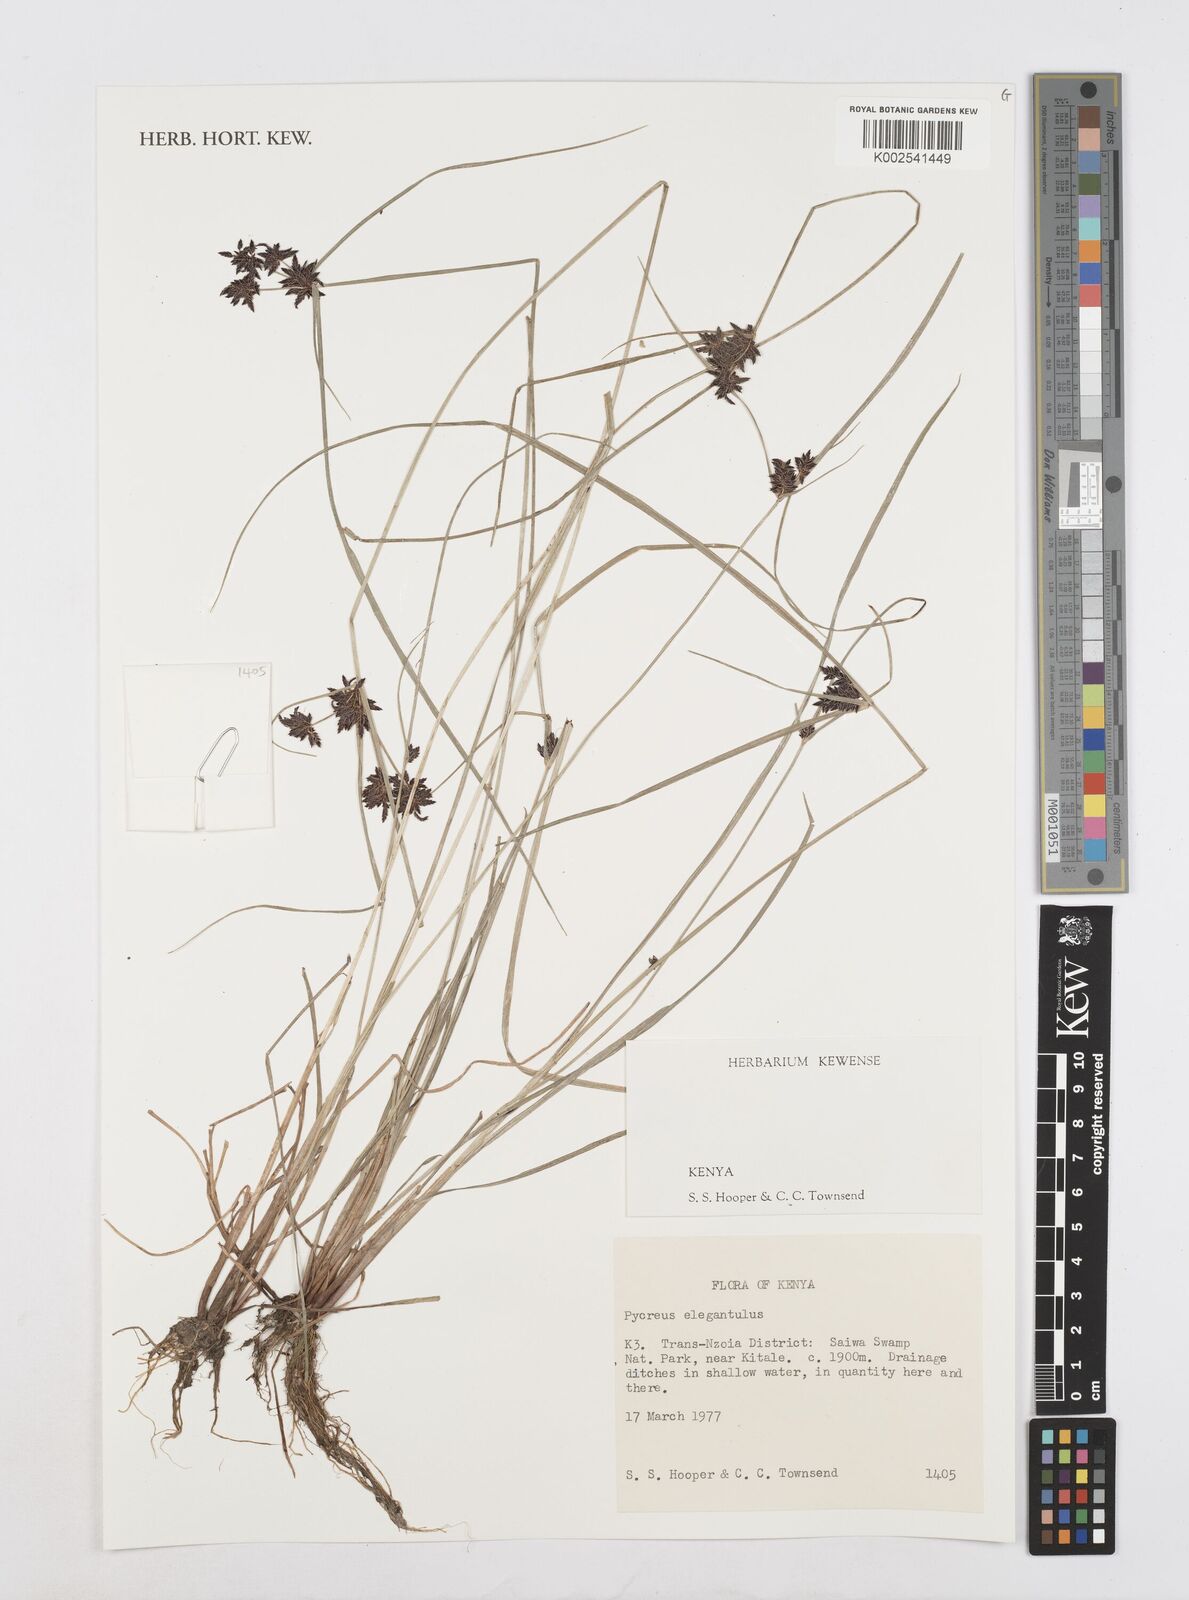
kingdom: Plantae
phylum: Tracheophyta
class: Liliopsida
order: Poales
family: Cyperaceae
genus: Cyperus
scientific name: Cyperus elegantulus
